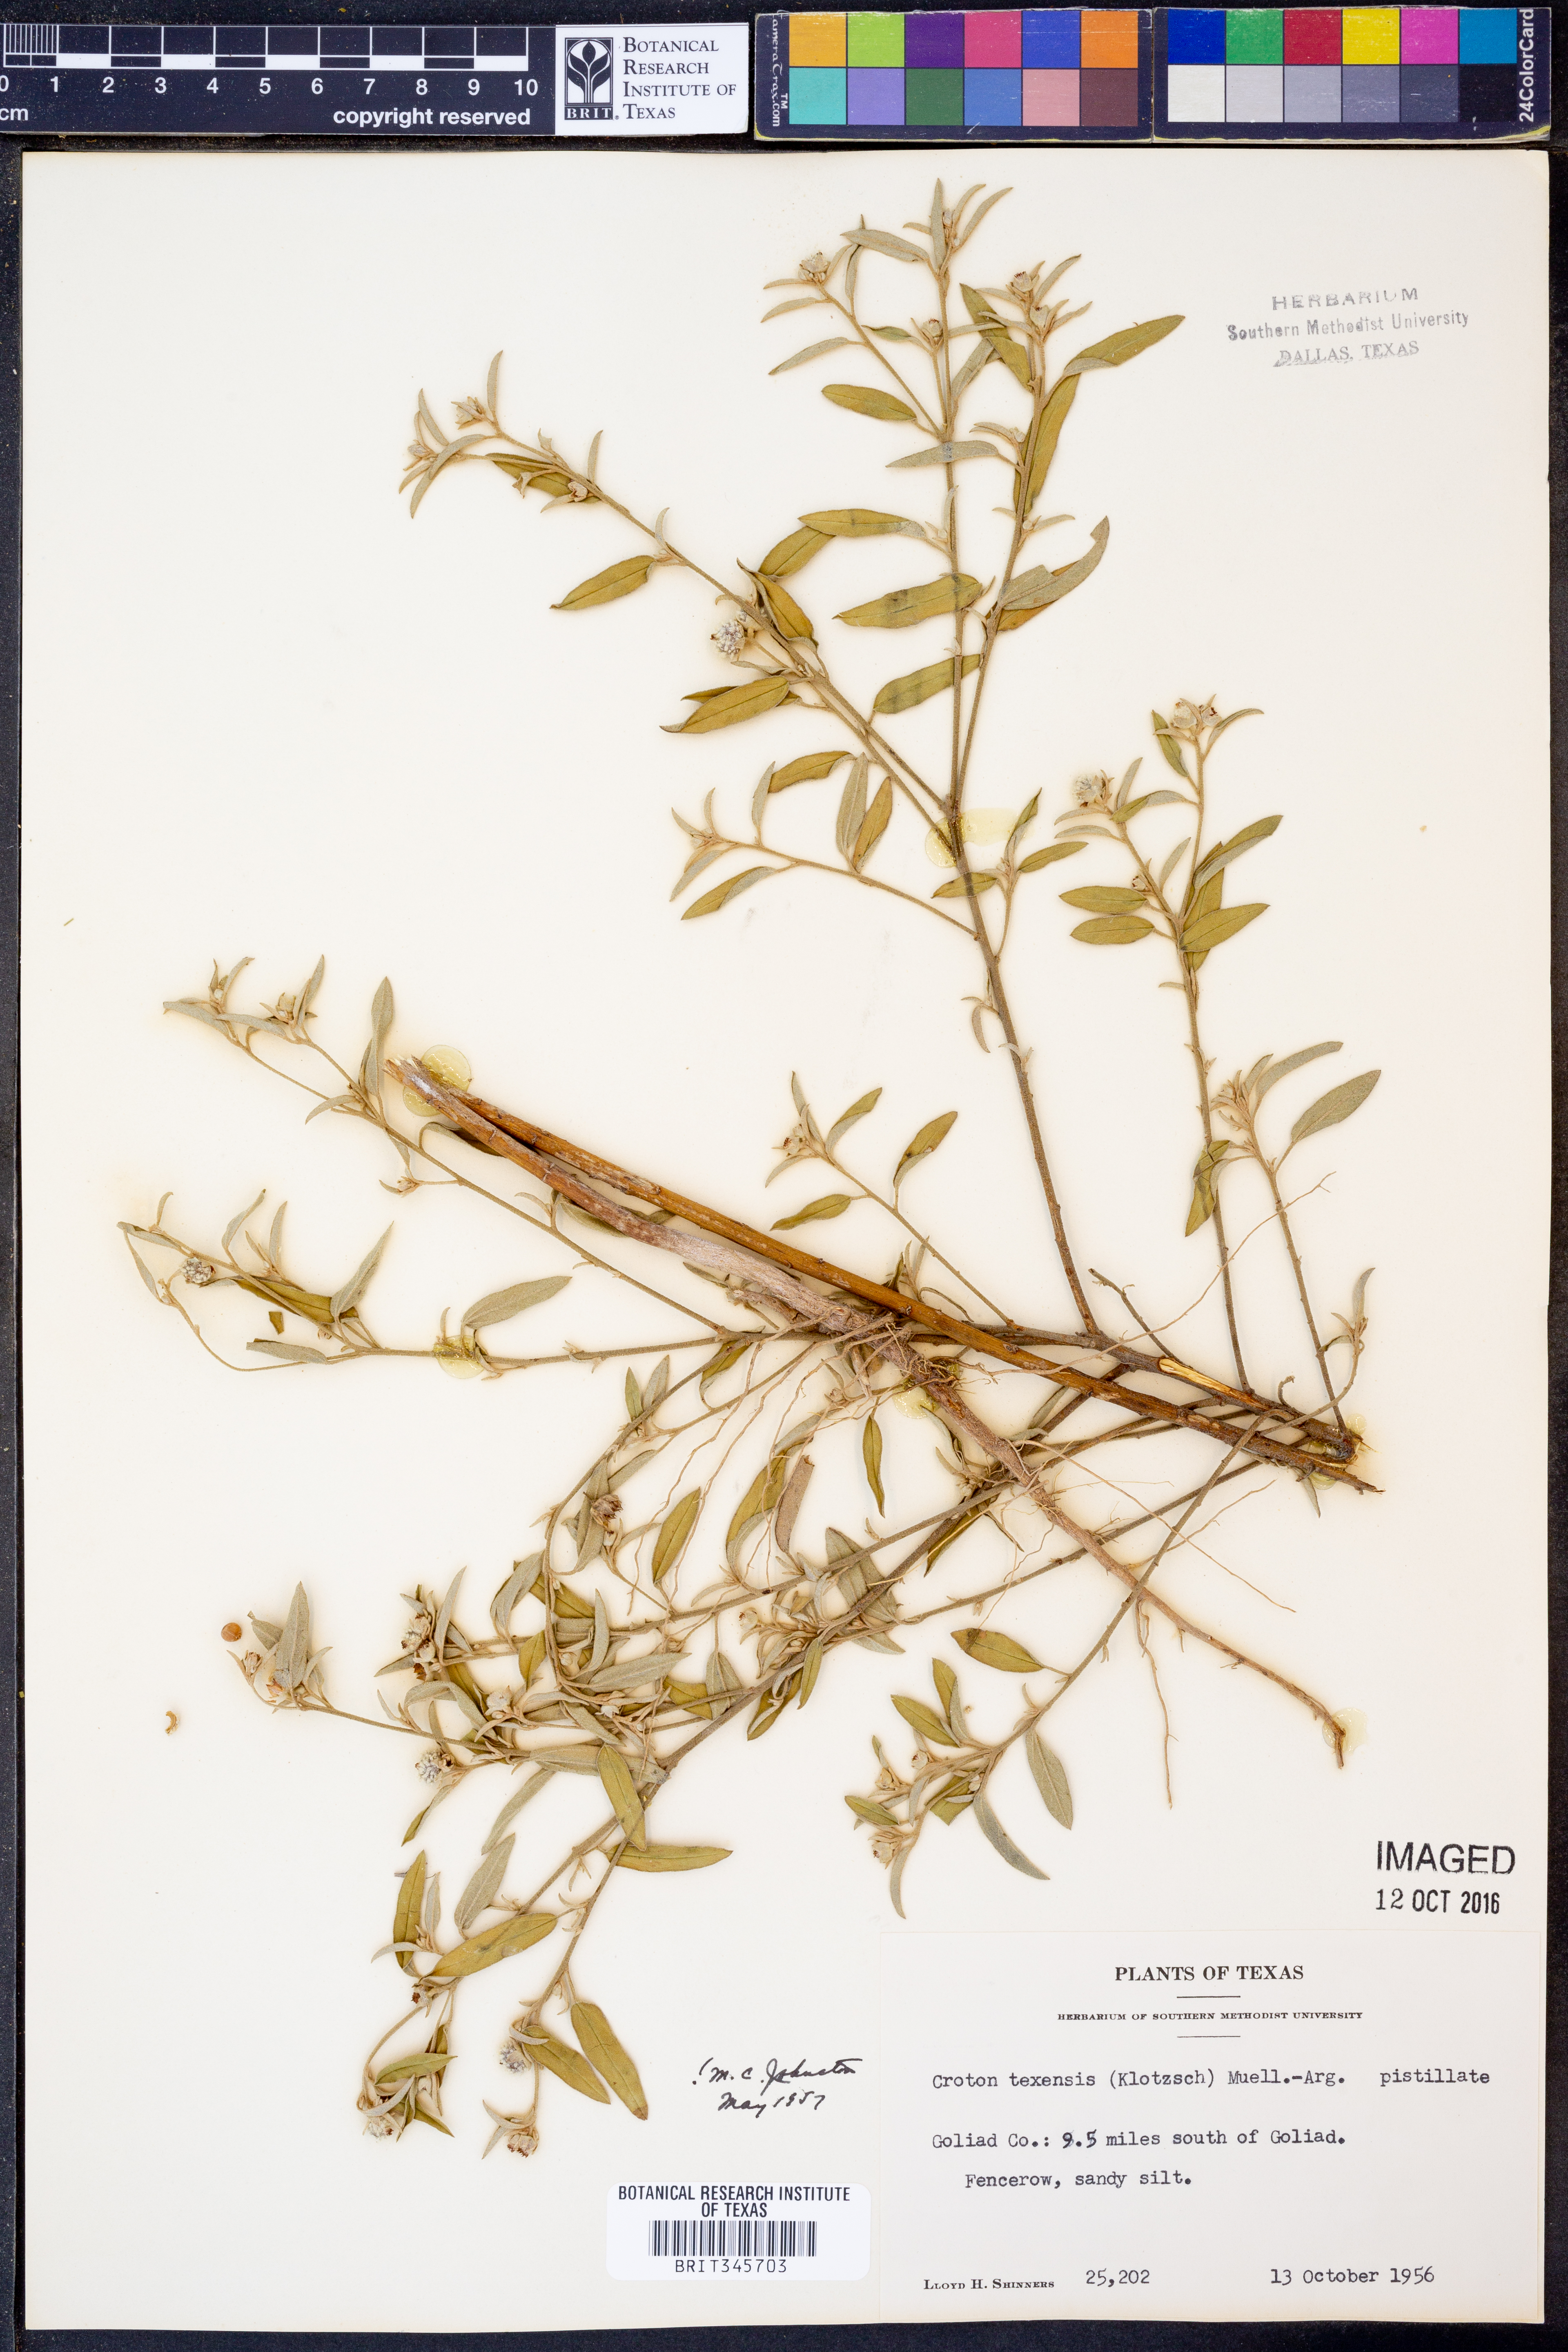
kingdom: Plantae
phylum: Tracheophyta
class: Magnoliopsida
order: Malpighiales
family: Euphorbiaceae
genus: Croton
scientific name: Croton texensis
